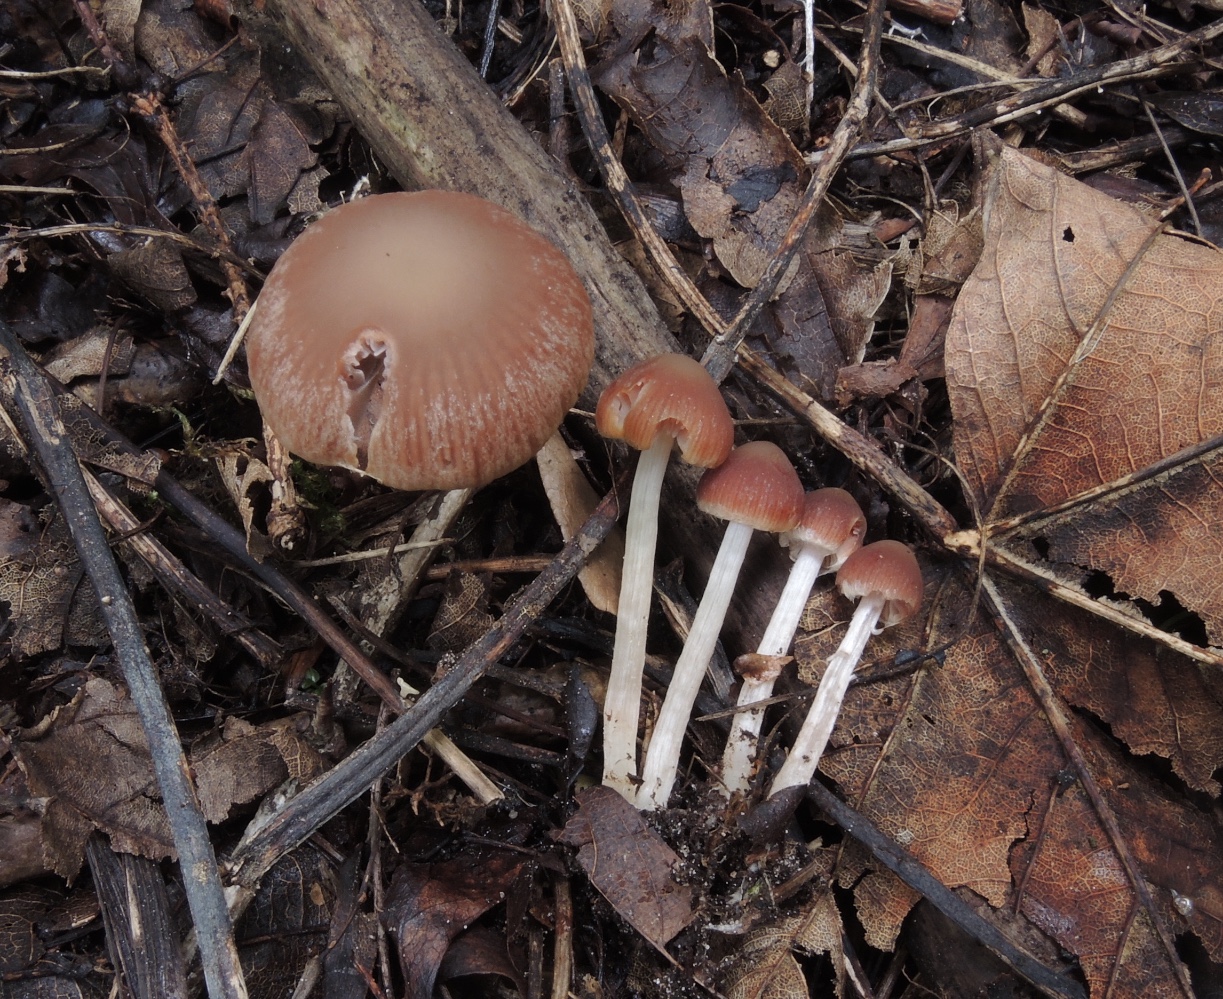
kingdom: Fungi
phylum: Basidiomycota
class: Agaricomycetes
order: Agaricales
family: Psathyrellaceae
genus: Psathyrella
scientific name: Psathyrella bipellis
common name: vinrød mørkhat
